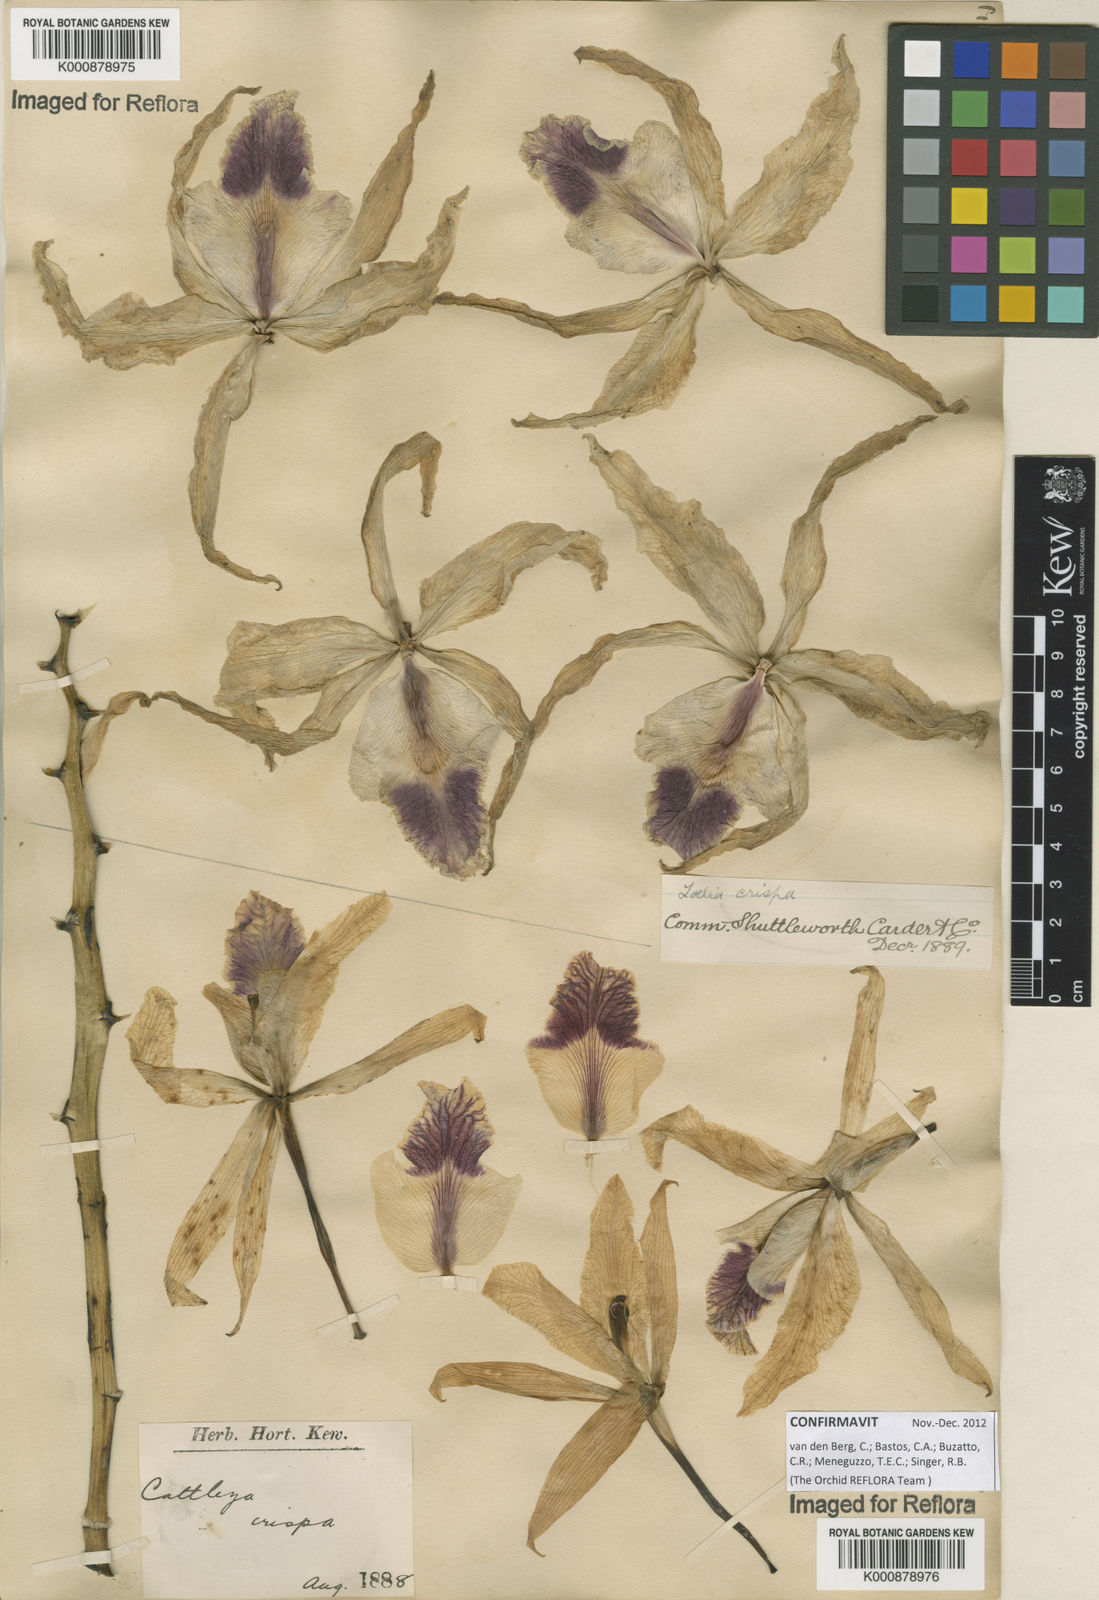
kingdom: Plantae
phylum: Tracheophyta
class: Liliopsida
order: Asparagales
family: Orchidaceae
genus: Cattleya
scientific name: Cattleya crispata
